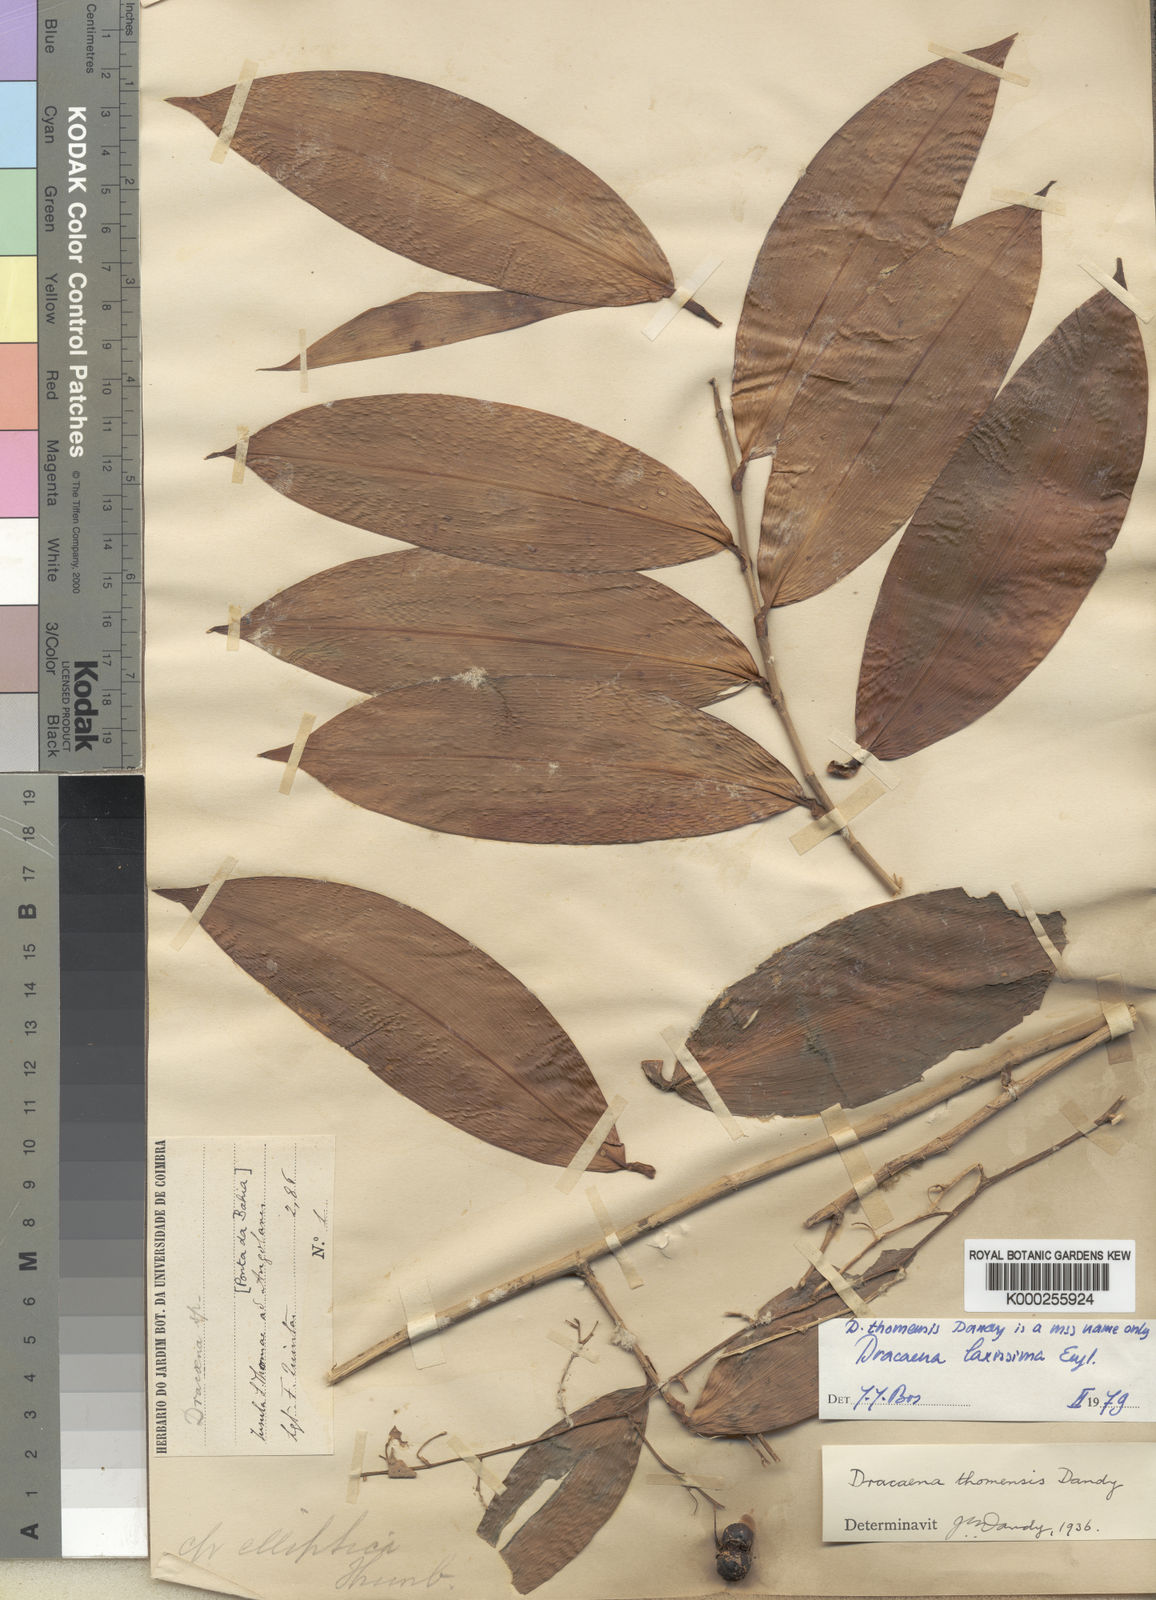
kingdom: Plantae
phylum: Tracheophyta
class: Liliopsida
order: Asparagales
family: Asparagaceae
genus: Dracaena
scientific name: Dracaena laxissima
